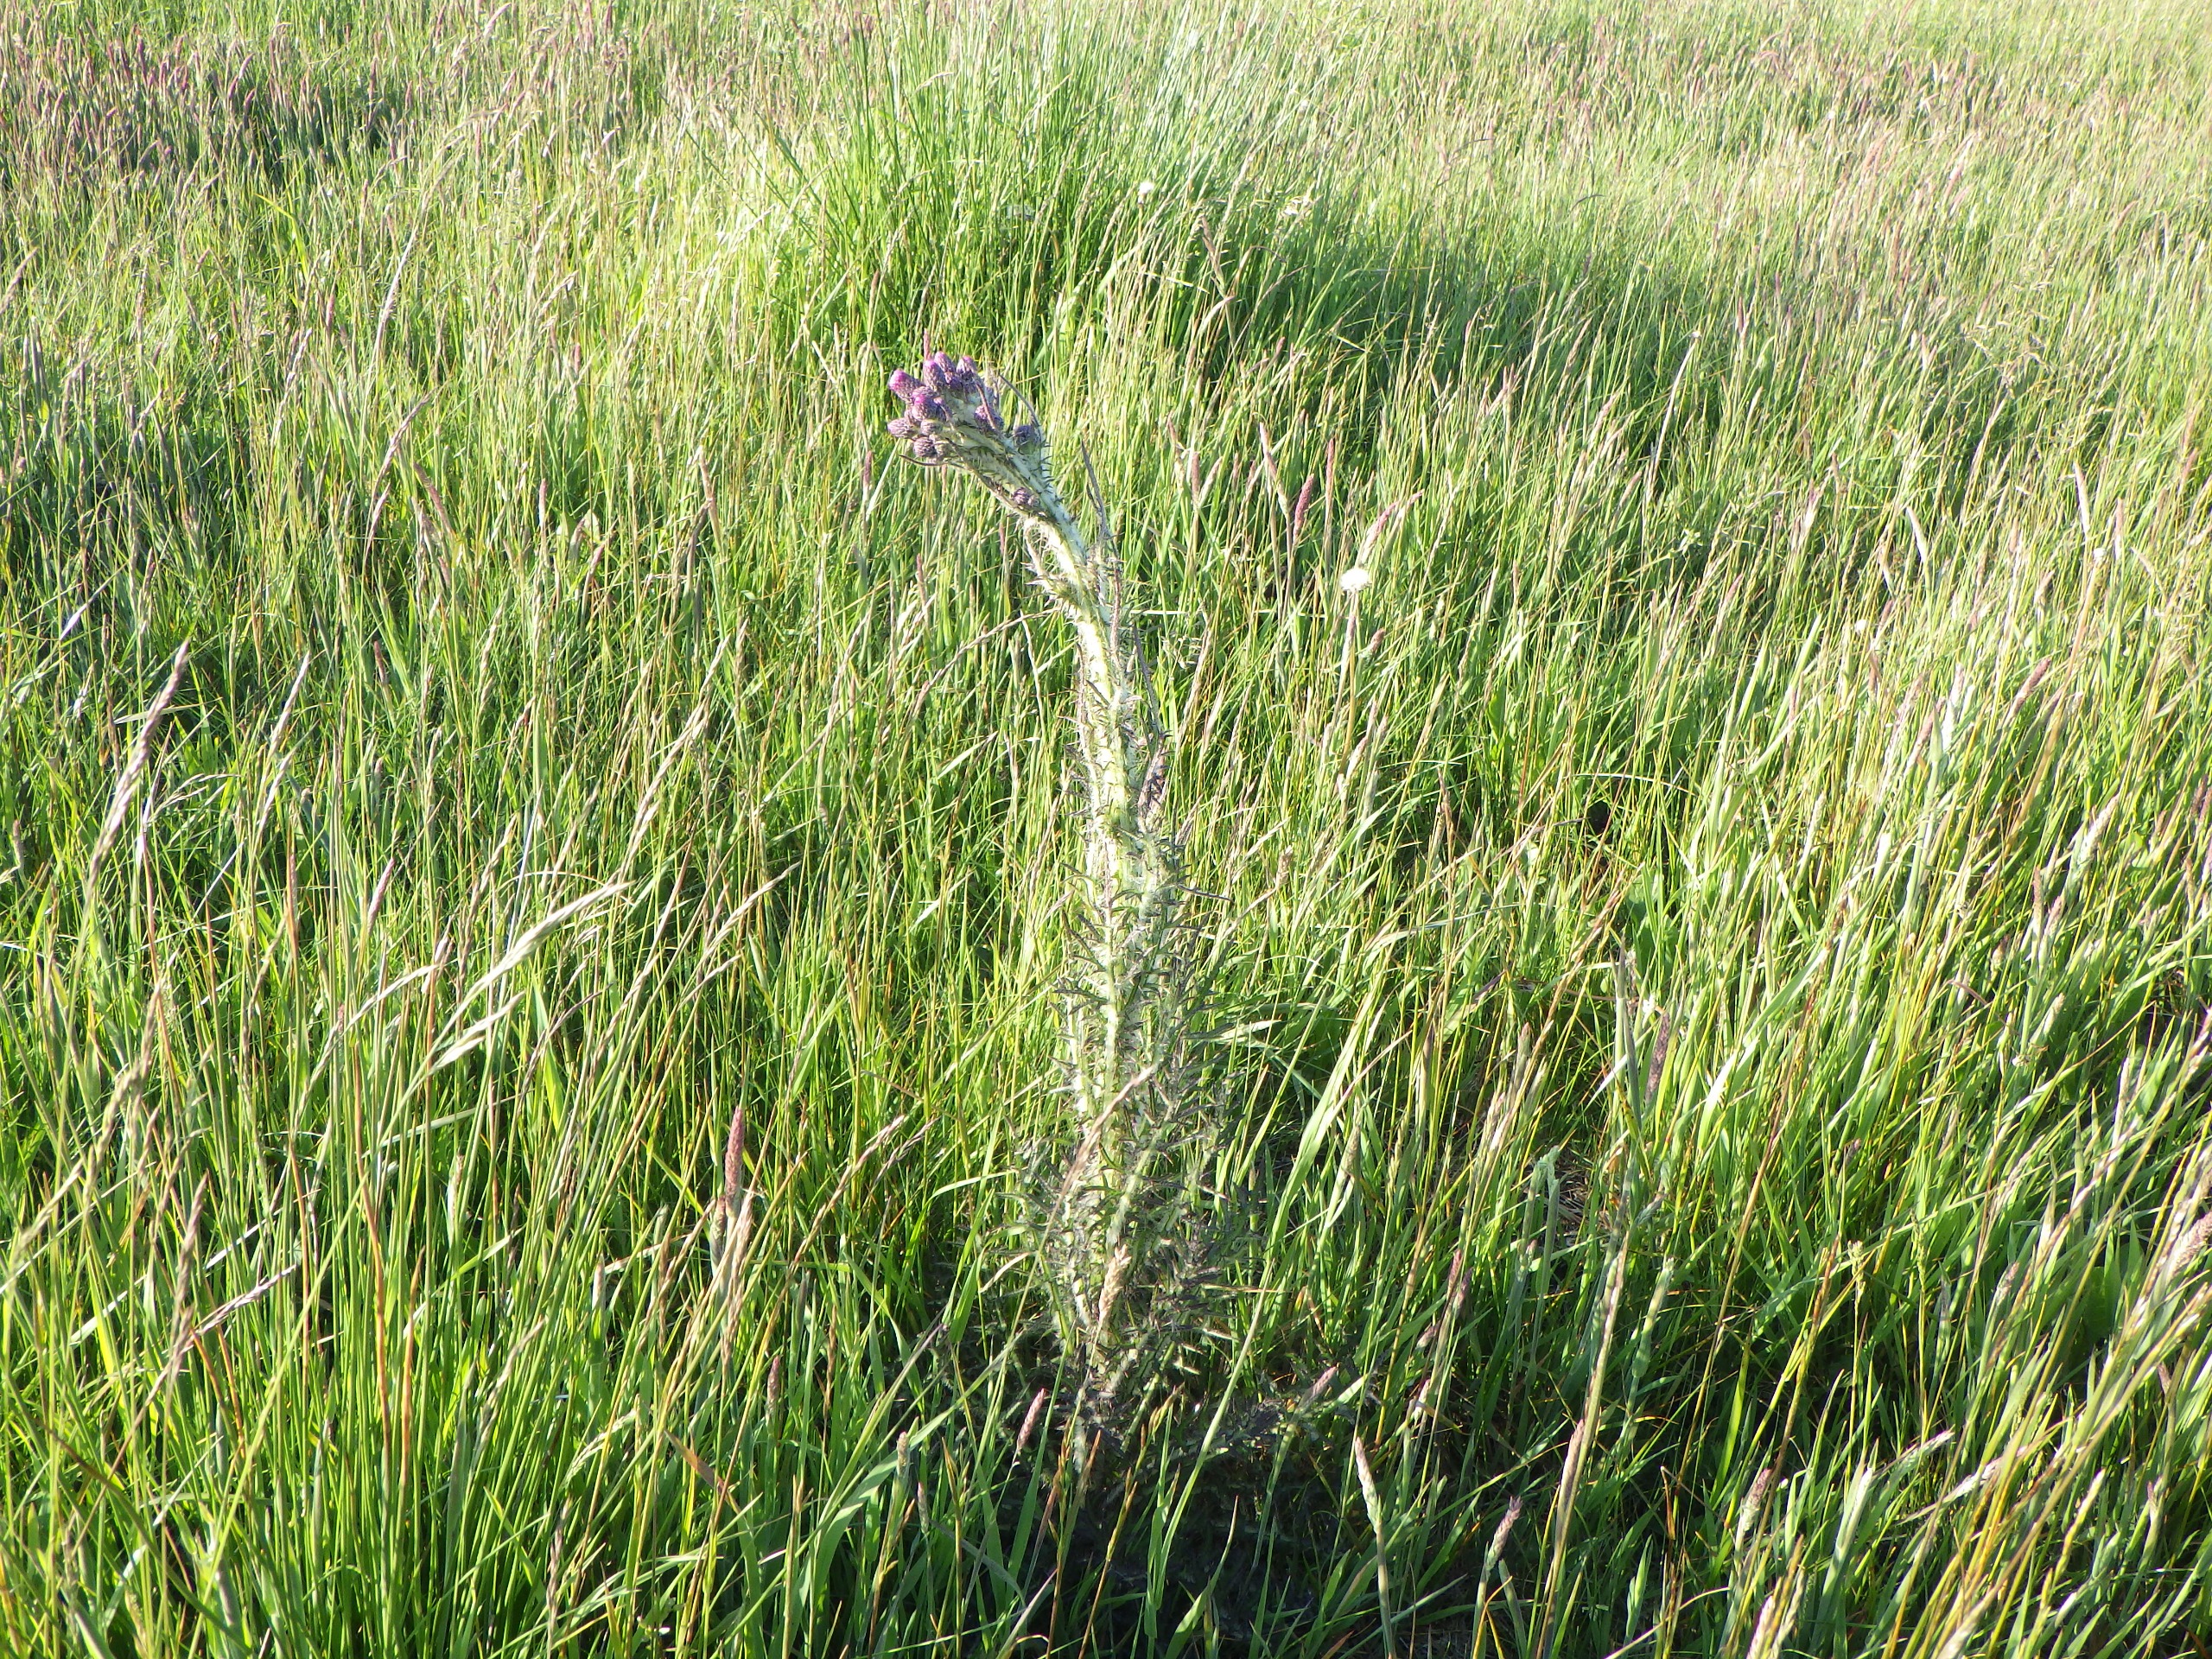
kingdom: Plantae
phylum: Tracheophyta
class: Magnoliopsida
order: Asterales
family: Asteraceae
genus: Cirsium
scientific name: Cirsium palustre
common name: Kær-tidsel
